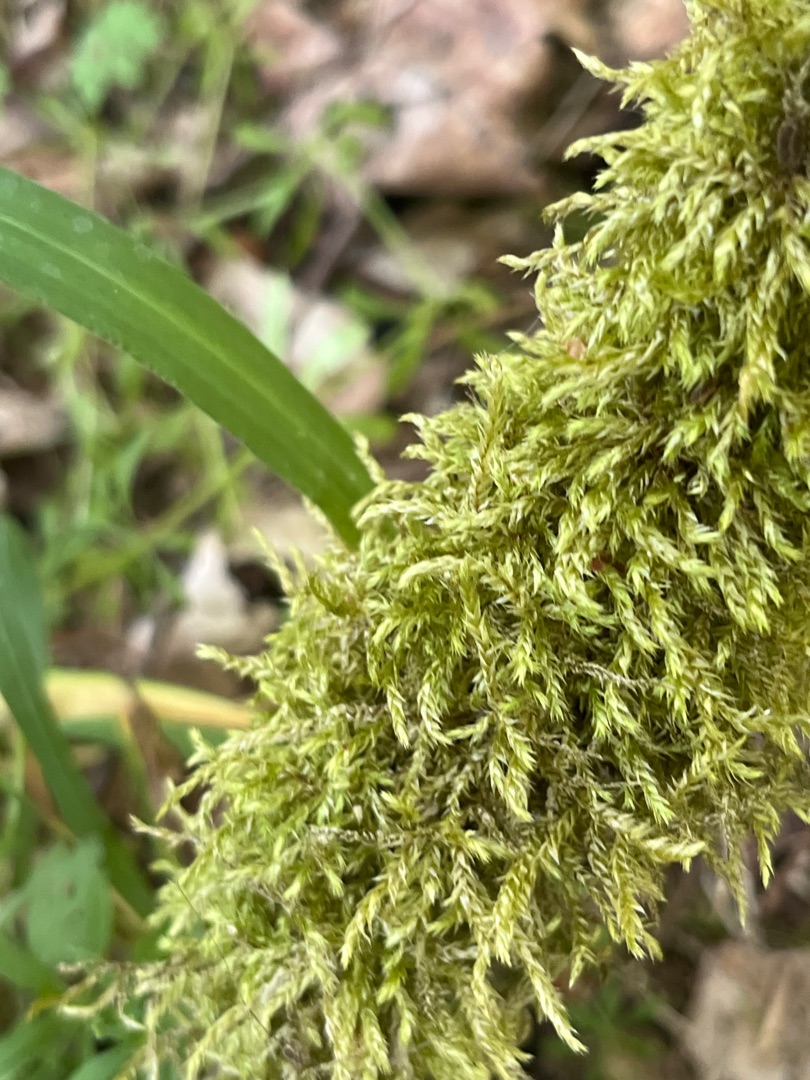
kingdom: Plantae
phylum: Bryophyta
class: Bryopsida
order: Hypnales
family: Brachytheciaceae
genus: Brachythecium
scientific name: Brachythecium rutabulum
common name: Almindelig kortkapsel
